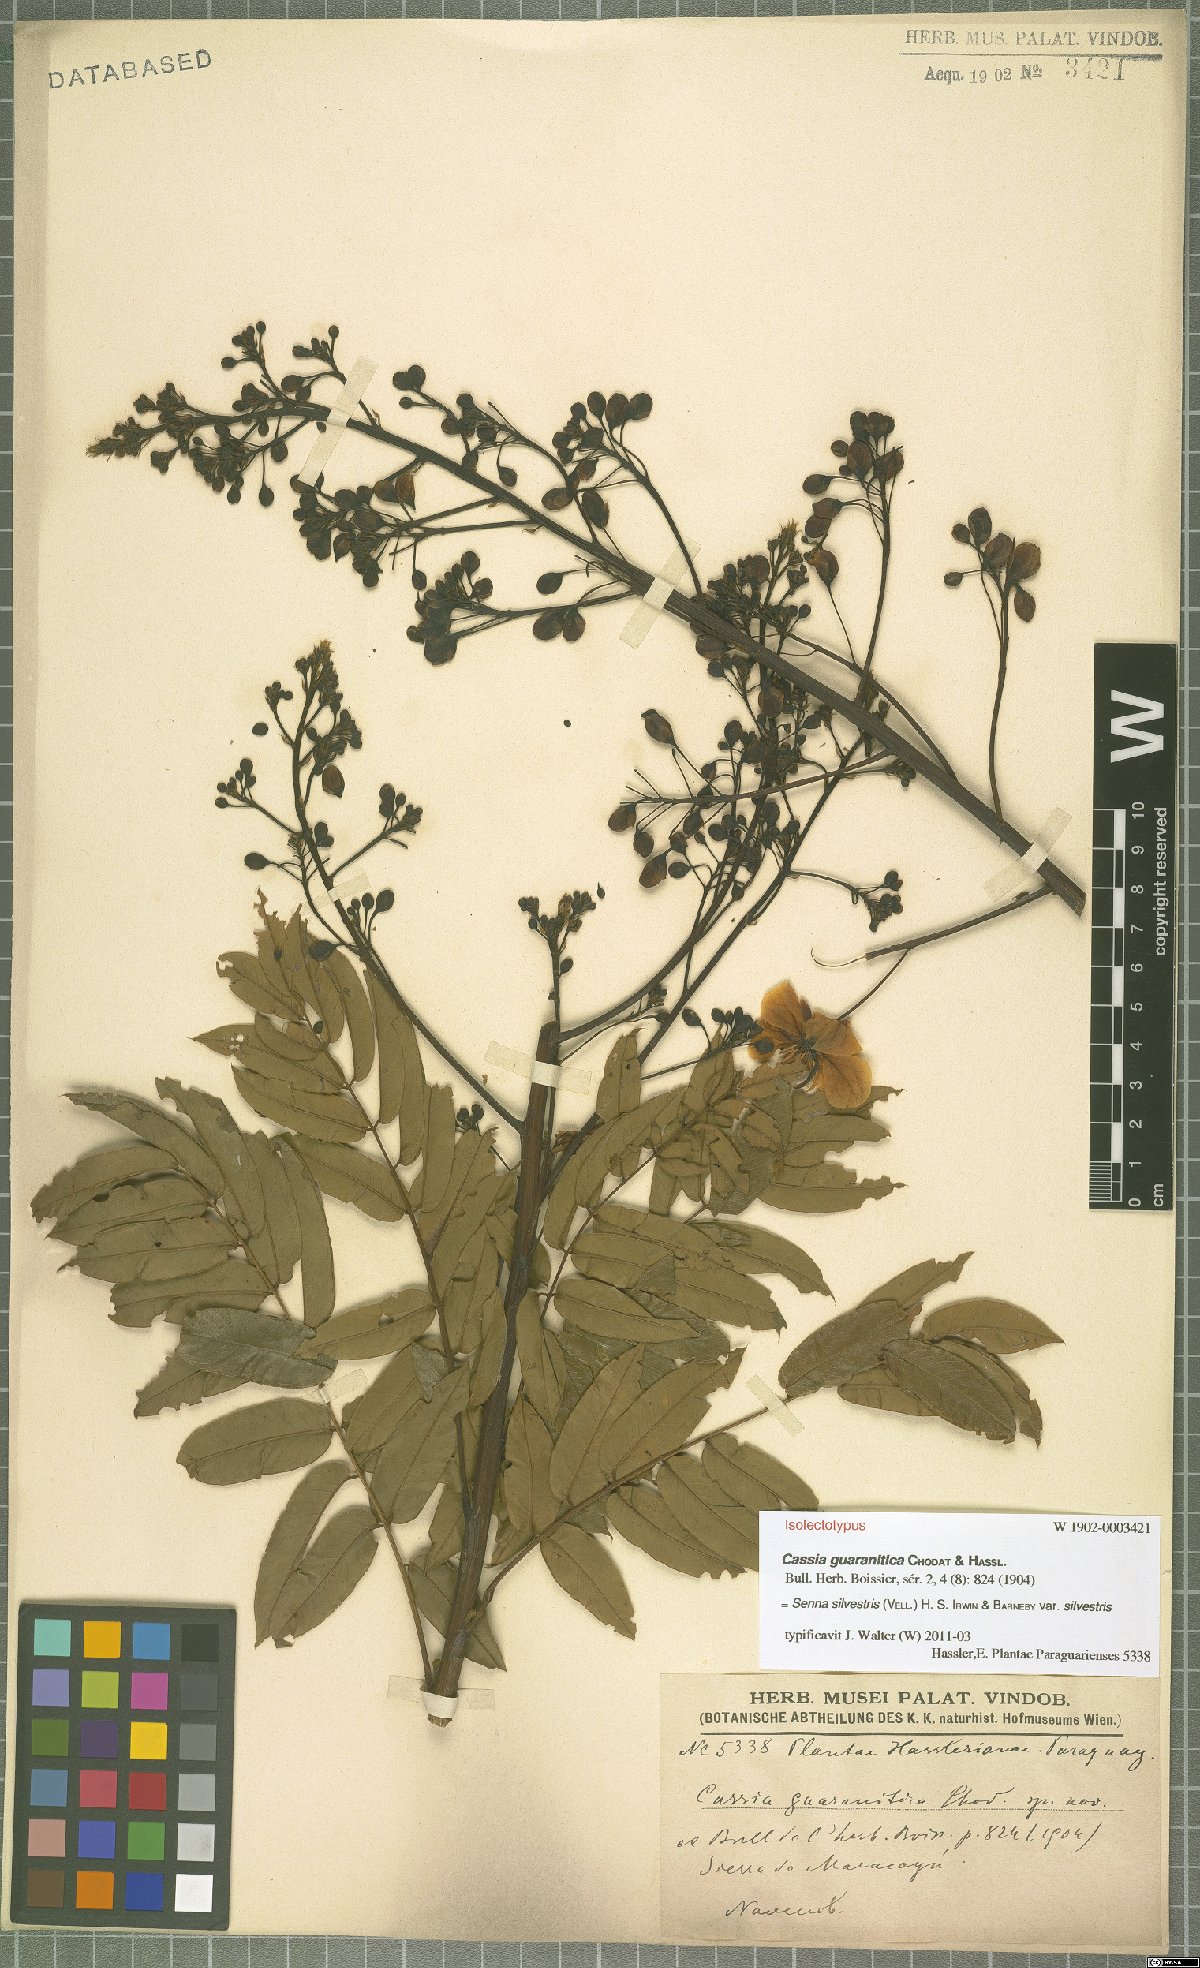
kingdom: Plantae
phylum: Tracheophyta
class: Magnoliopsida
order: Fabales
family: Fabaceae
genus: Senna
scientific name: Senna silvestris
